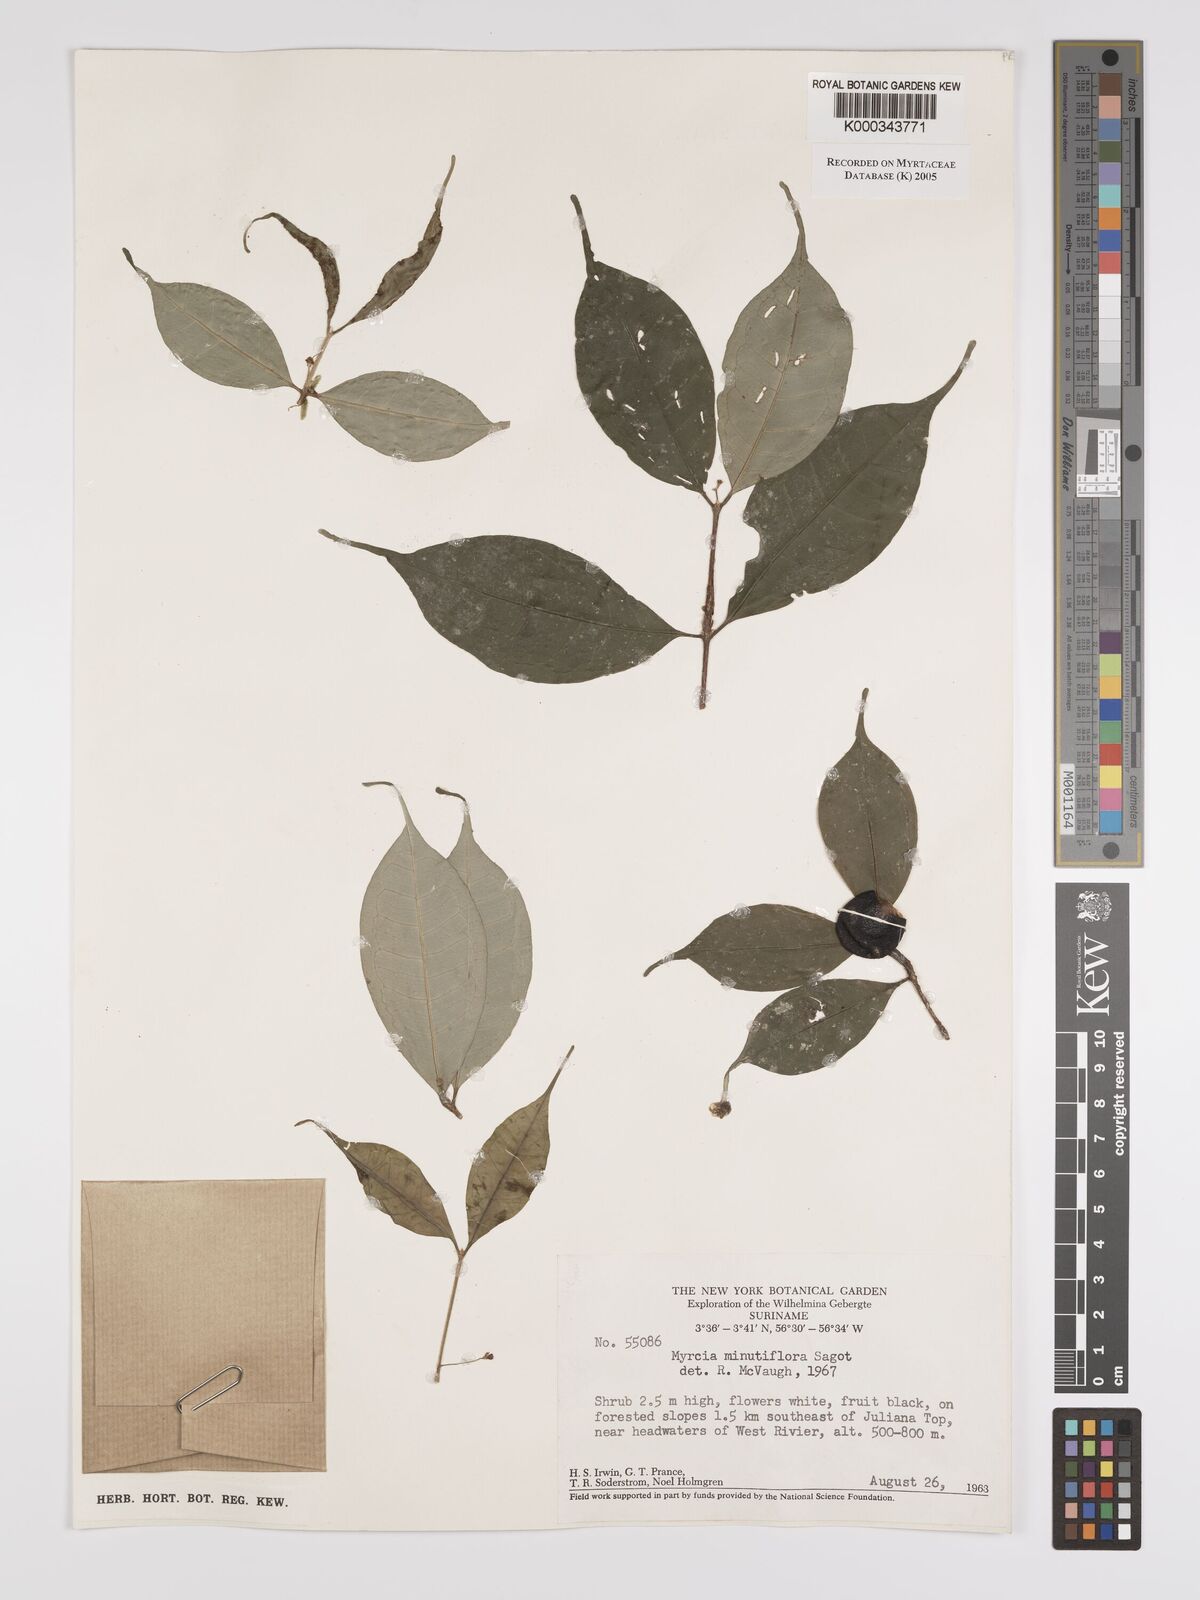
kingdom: Plantae
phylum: Tracheophyta
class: Magnoliopsida
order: Myrtales
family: Myrtaceae
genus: Myrcia
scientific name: Myrcia minutiflora
